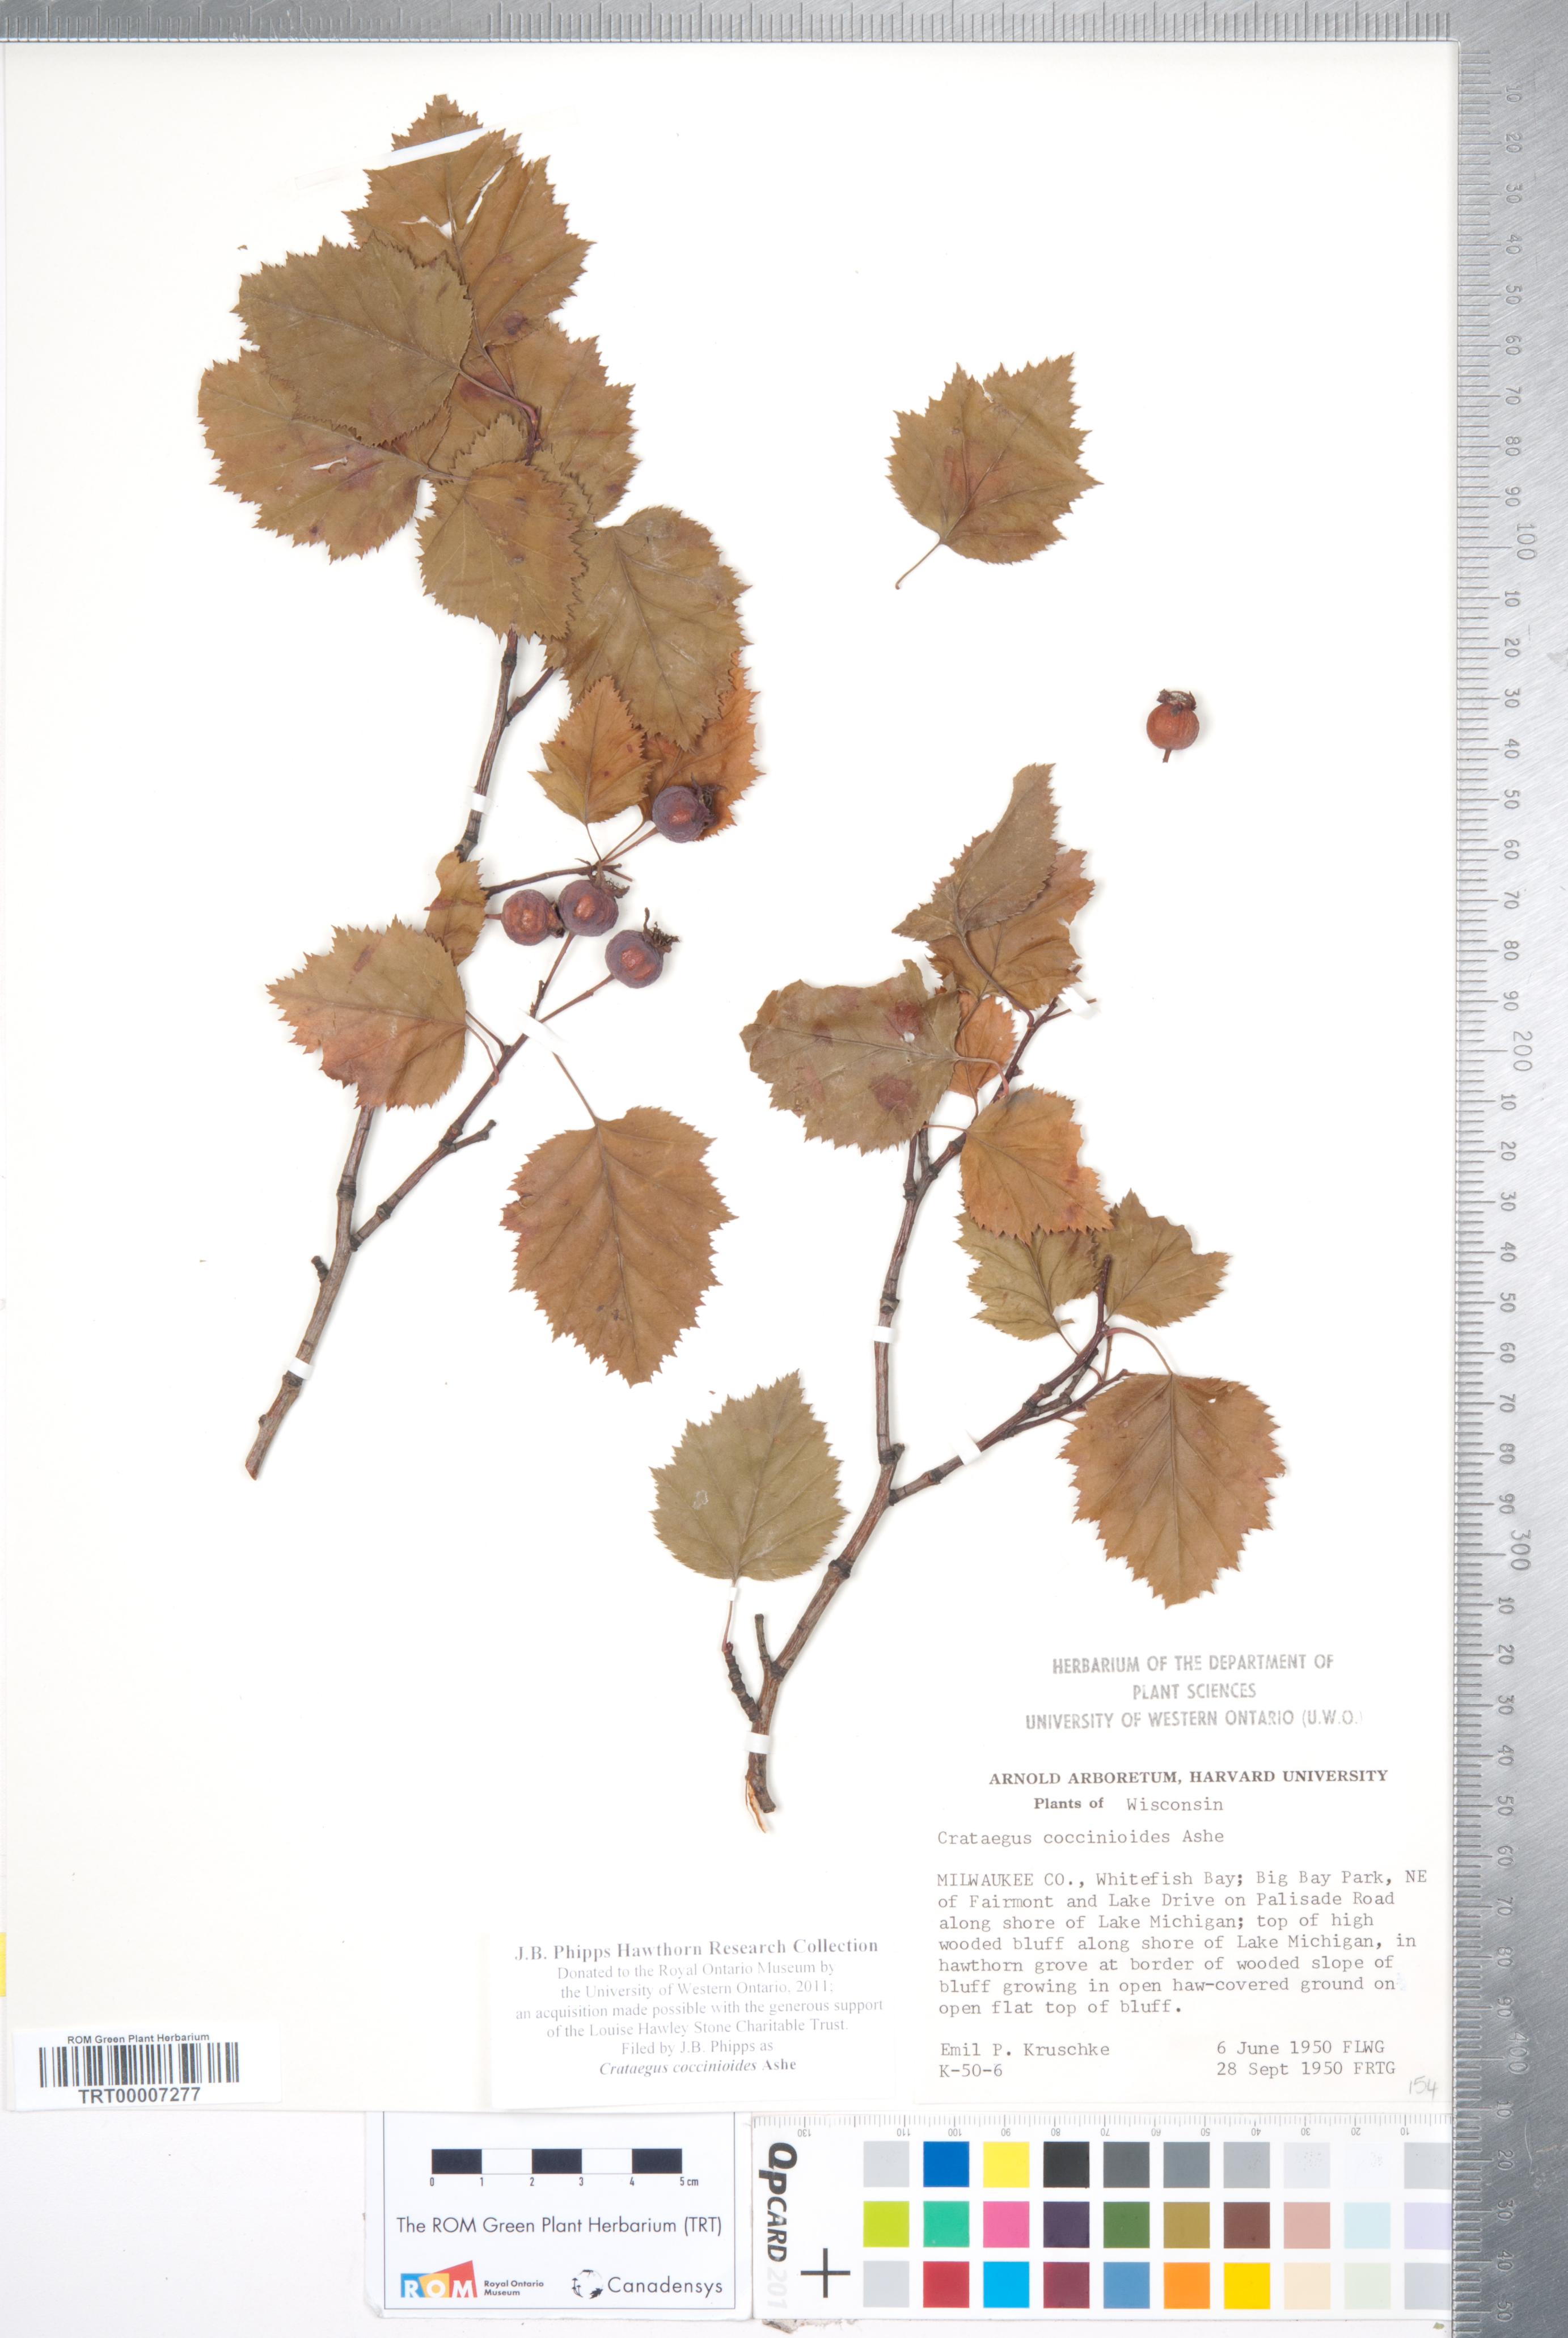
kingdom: Plantae
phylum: Tracheophyta
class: Magnoliopsida
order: Rosales
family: Rosaceae
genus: Crataegus
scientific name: Crataegus coccinioides
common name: Large-flowered cockspurthorn
